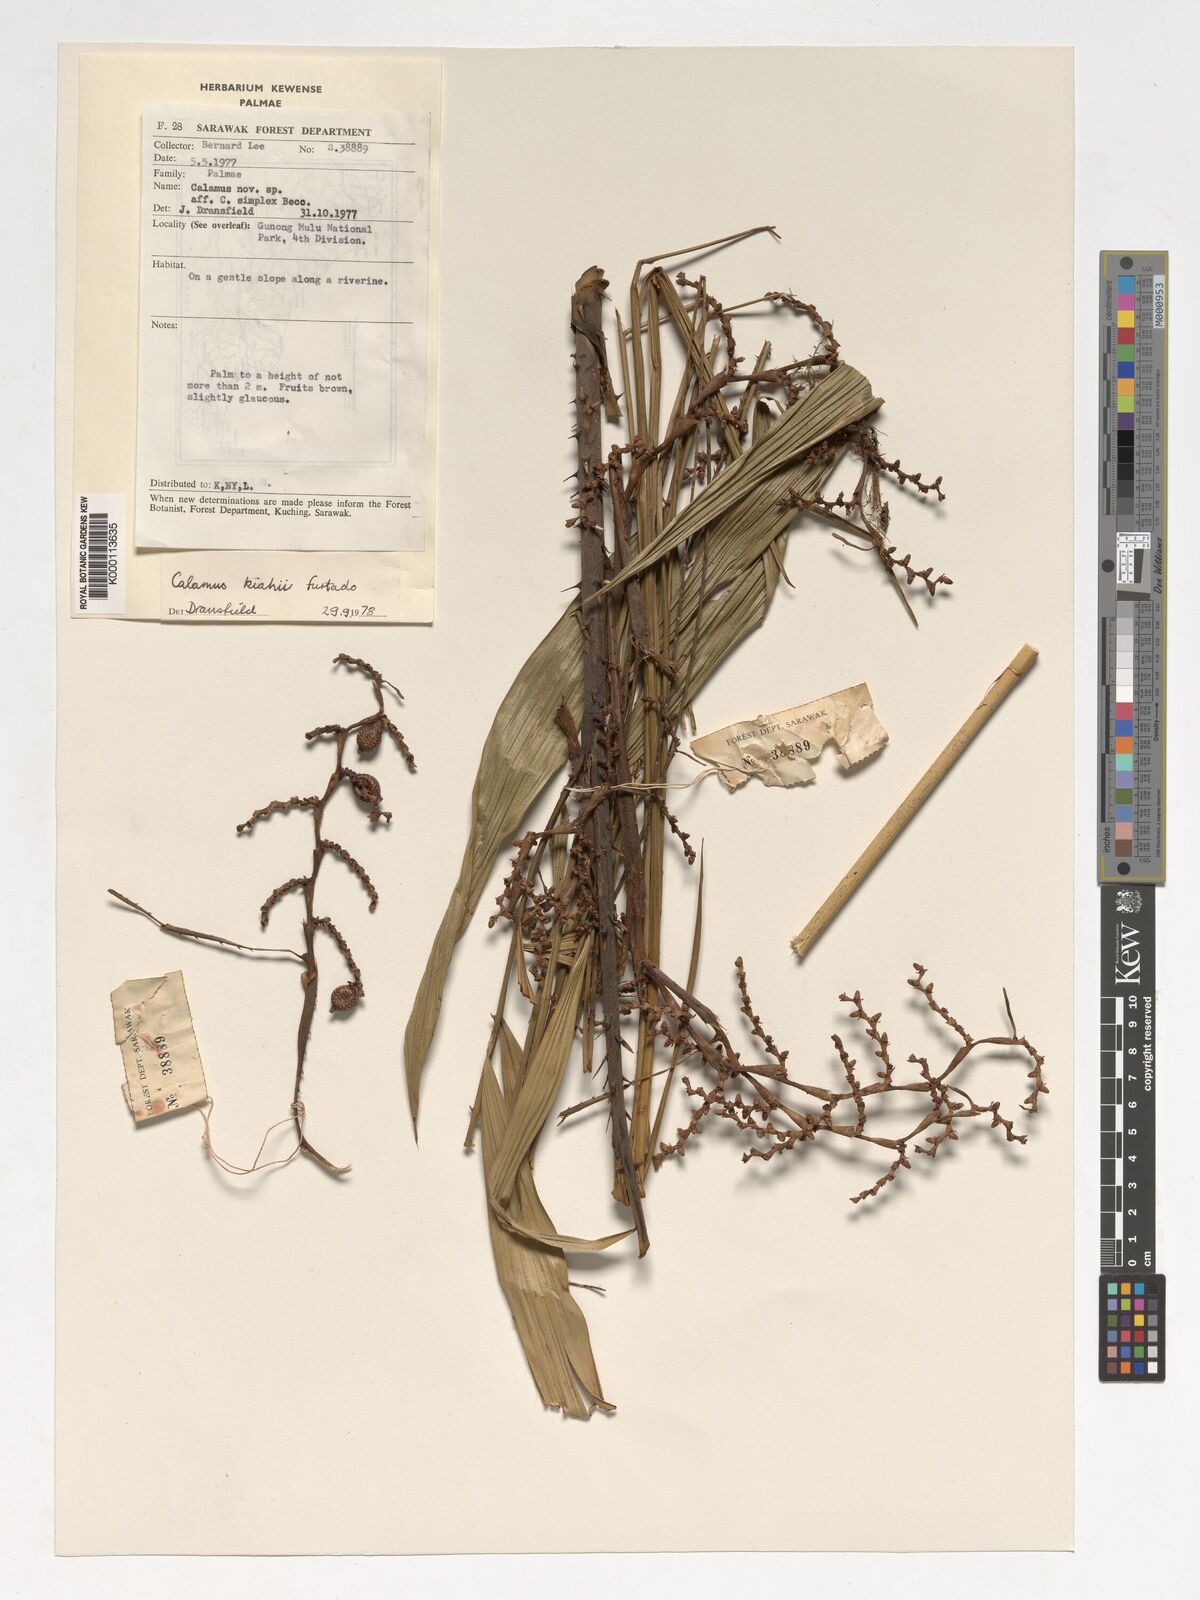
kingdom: Plantae
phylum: Tracheophyta
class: Liliopsida
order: Arecales
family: Arecaceae
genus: Calamus
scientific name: Calamus plicatus
